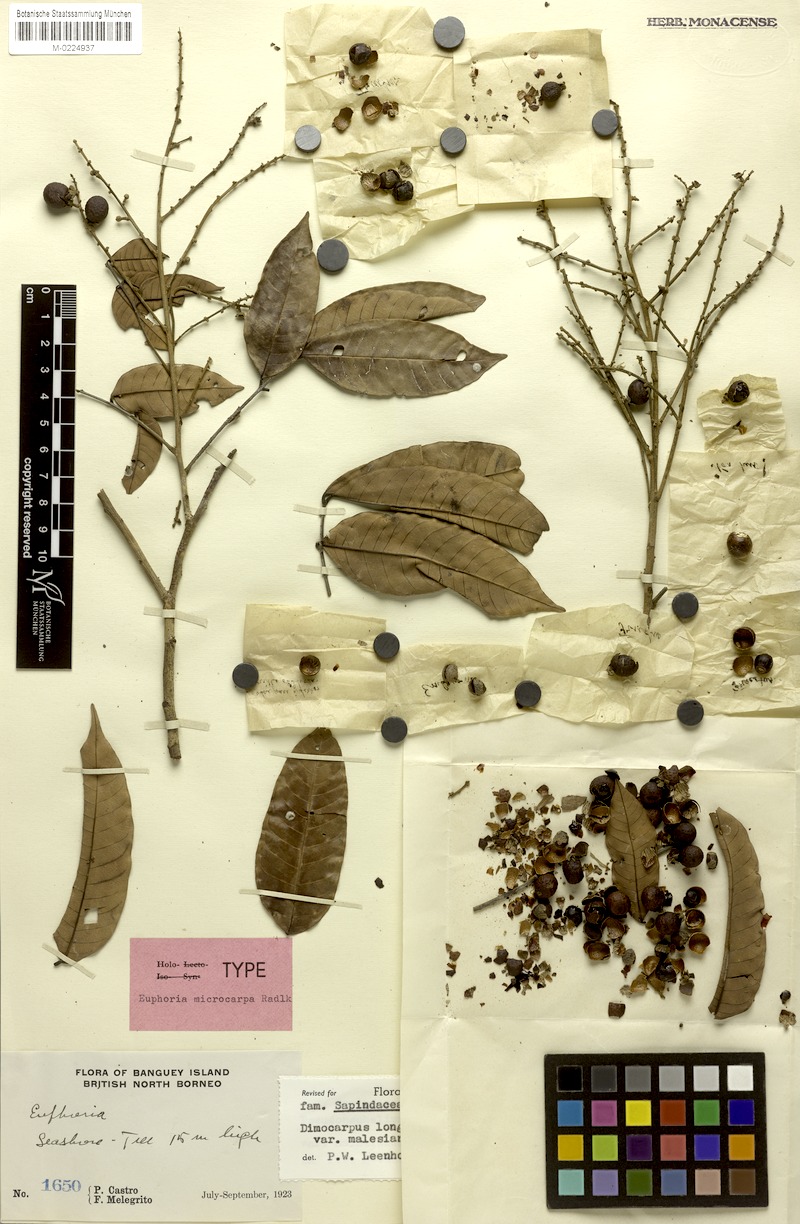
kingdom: Plantae
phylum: Tracheophyta
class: Magnoliopsida
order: Sapindales
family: Sapindaceae
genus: Dimocarpus
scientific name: Dimocarpus malesianus
